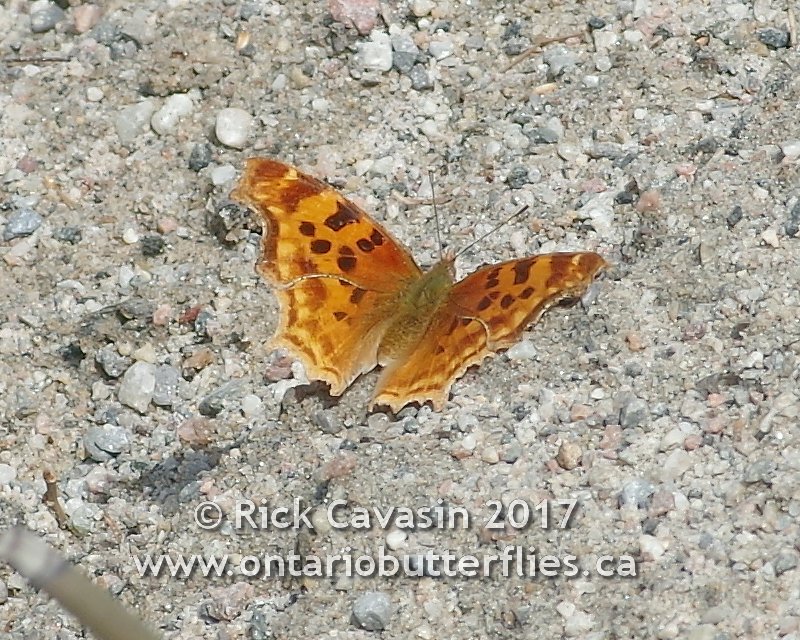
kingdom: Animalia
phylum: Arthropoda
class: Insecta
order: Lepidoptera
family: Nymphalidae
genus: Polygonia
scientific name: Polygonia satyrus
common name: Satyr Comma
